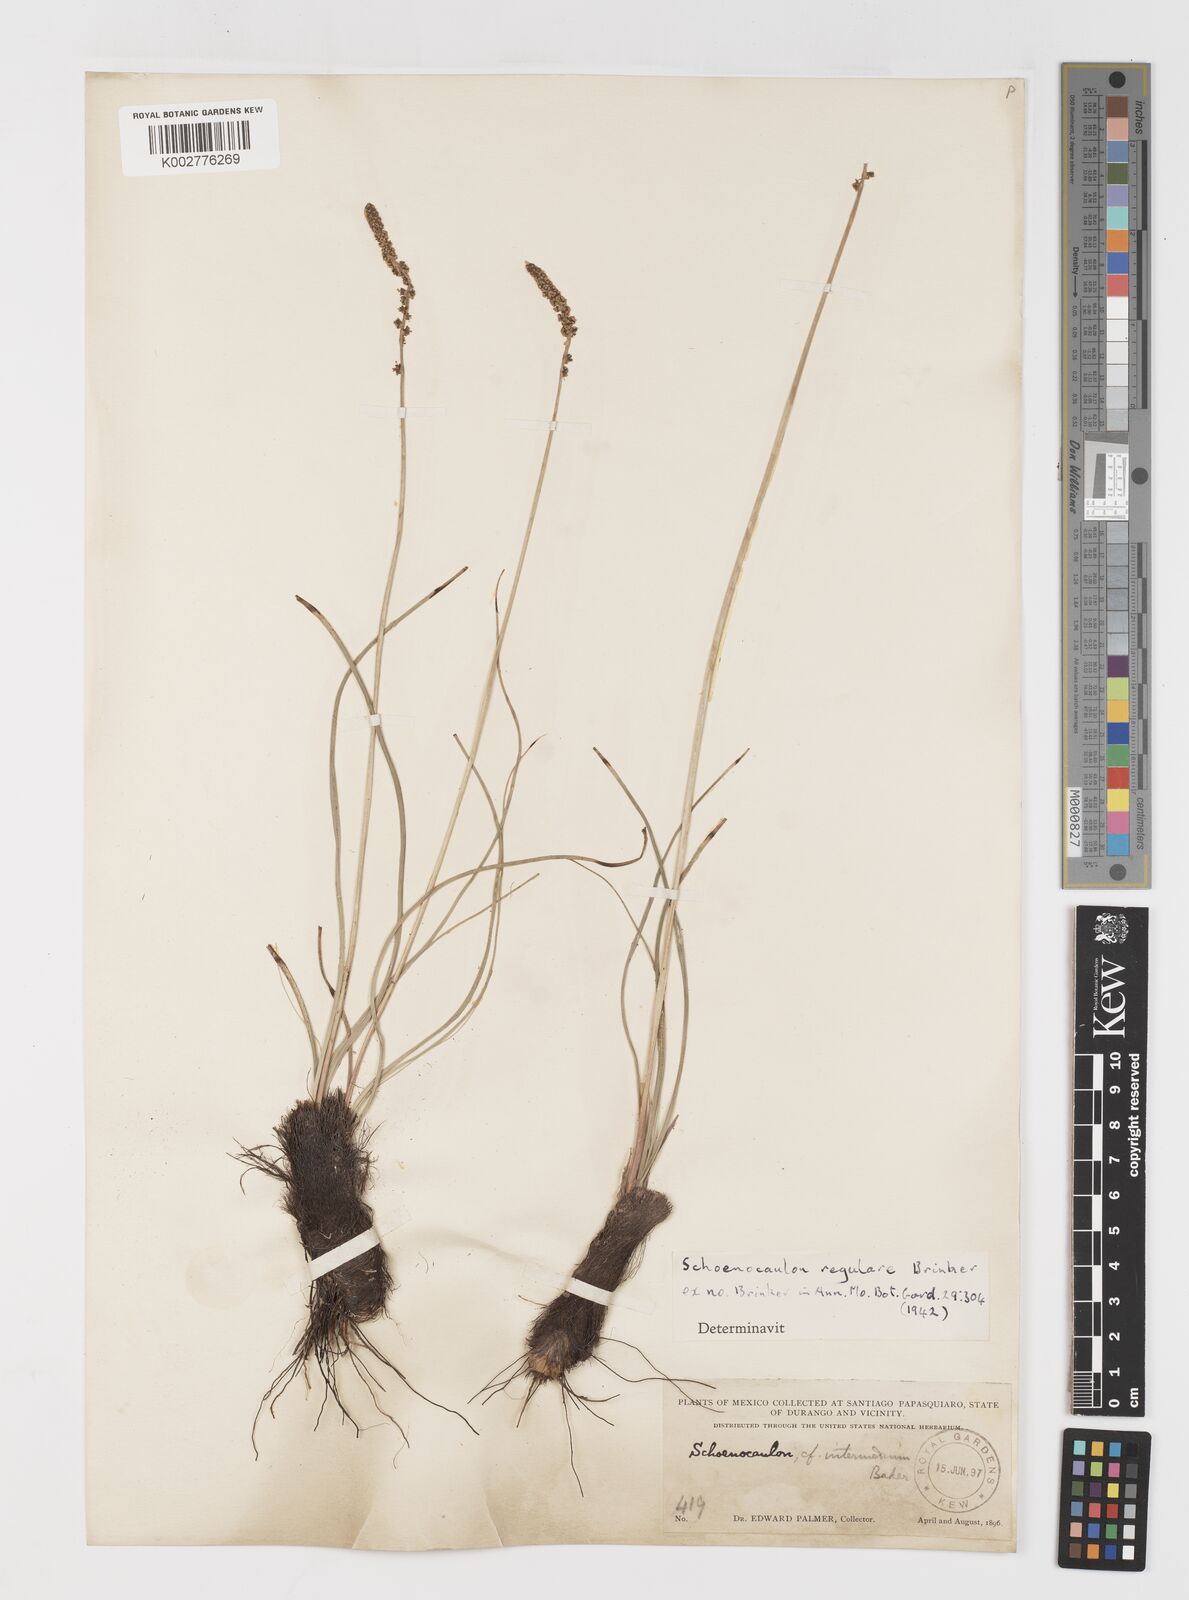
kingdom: Plantae
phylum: Tracheophyta
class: Liliopsida
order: Liliales
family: Melanthiaceae
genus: Schoenocaulon
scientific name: Schoenocaulon jaliscense
